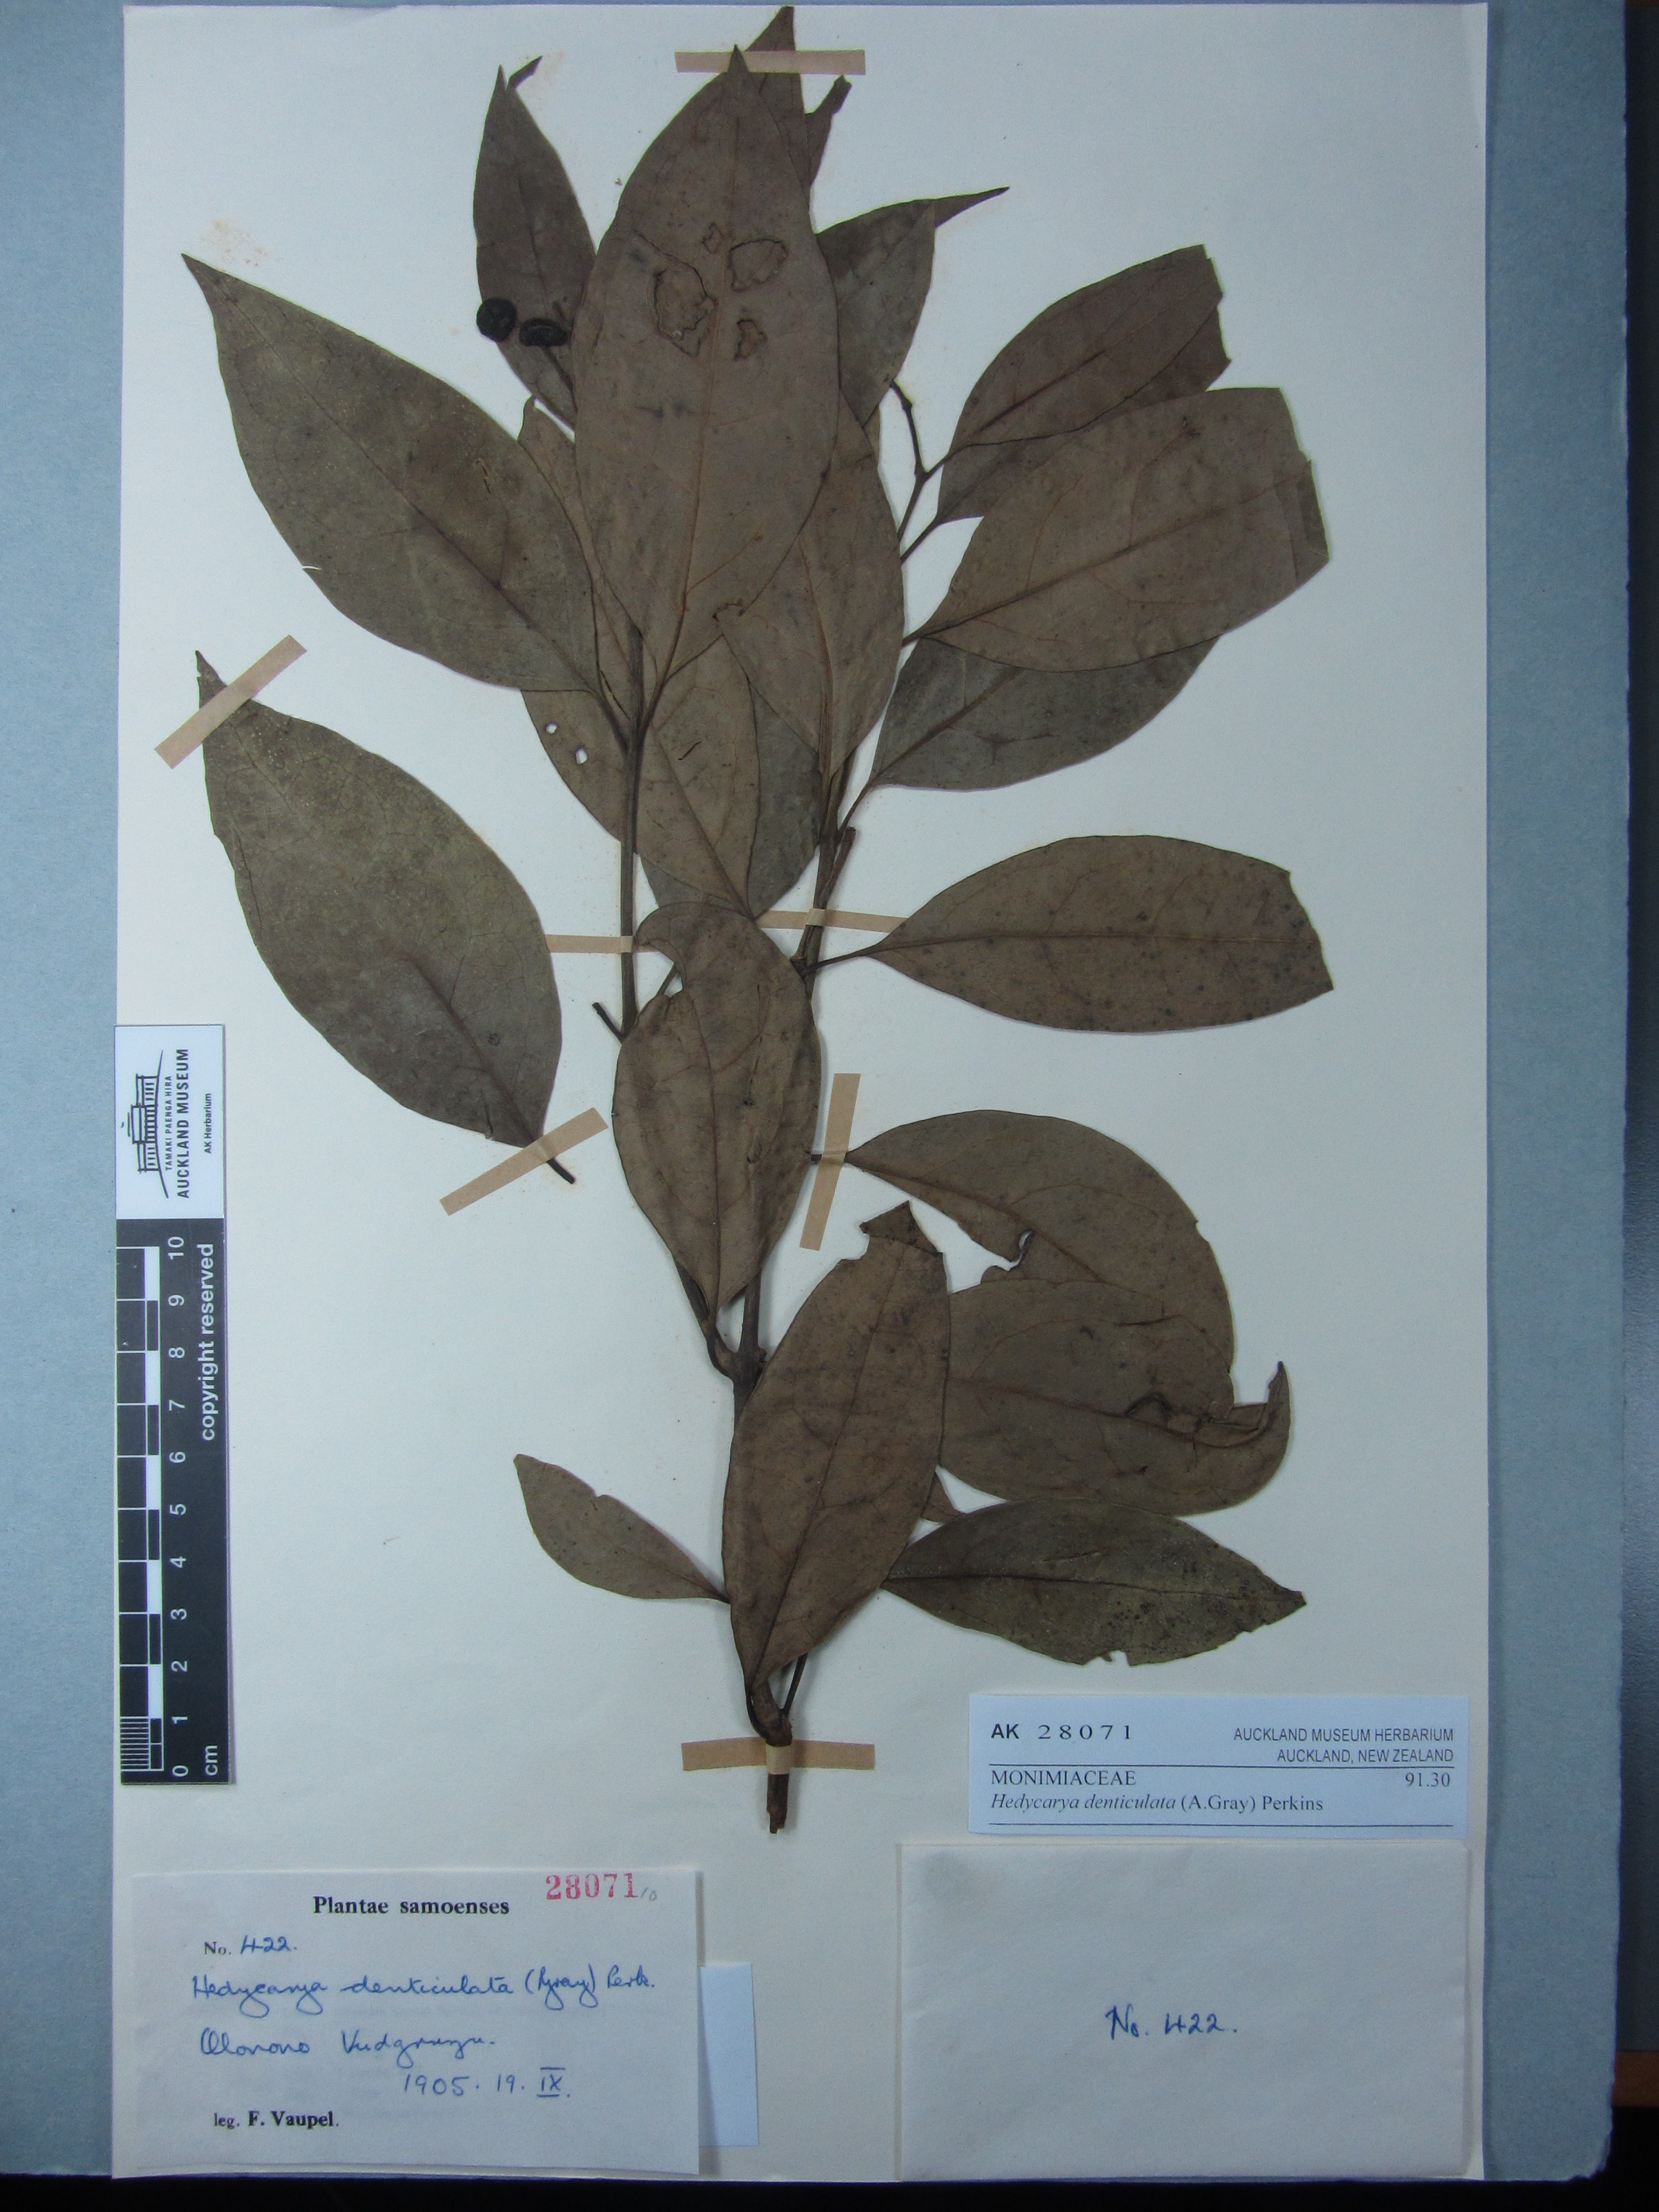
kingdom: Plantae
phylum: Tracheophyta
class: Magnoliopsida
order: Laurales
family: Monimiaceae
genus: Hedycarya
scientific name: Hedycarya denticulata
